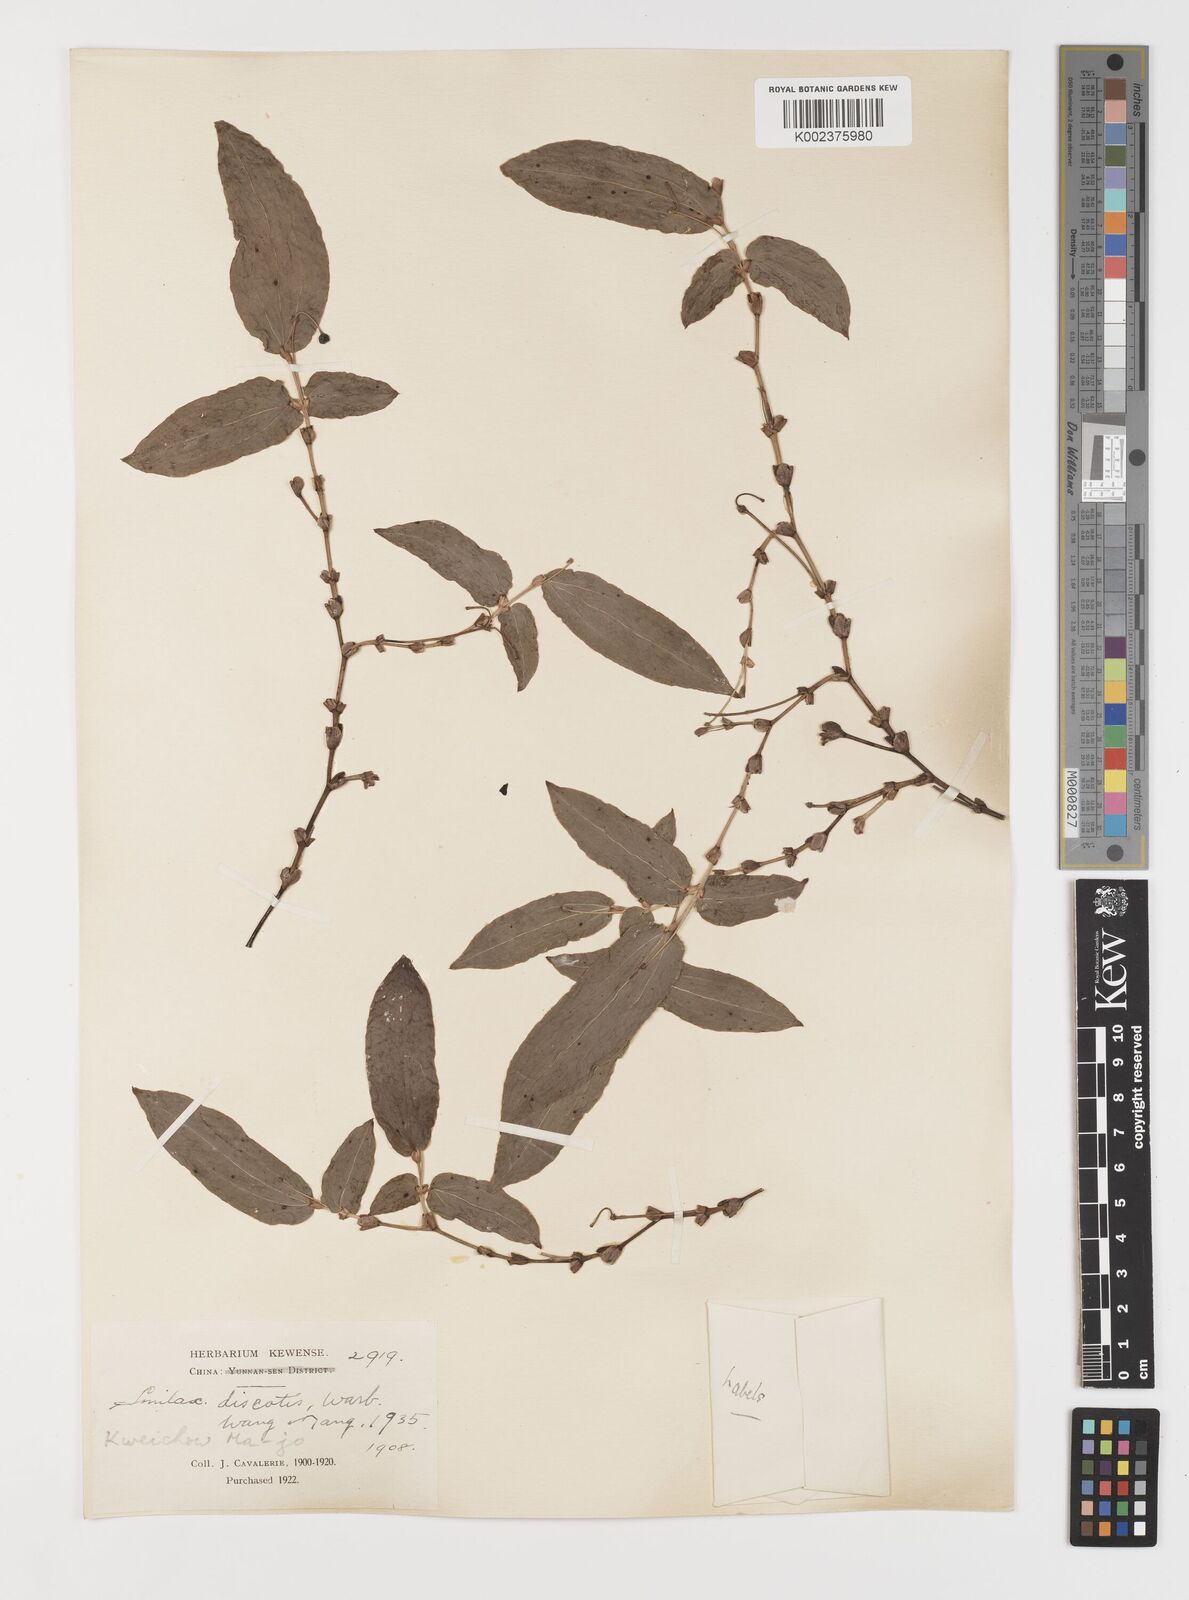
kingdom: Plantae
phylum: Tracheophyta
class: Liliopsida
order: Liliales
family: Smilacaceae
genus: Smilax
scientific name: Smilax discotis
